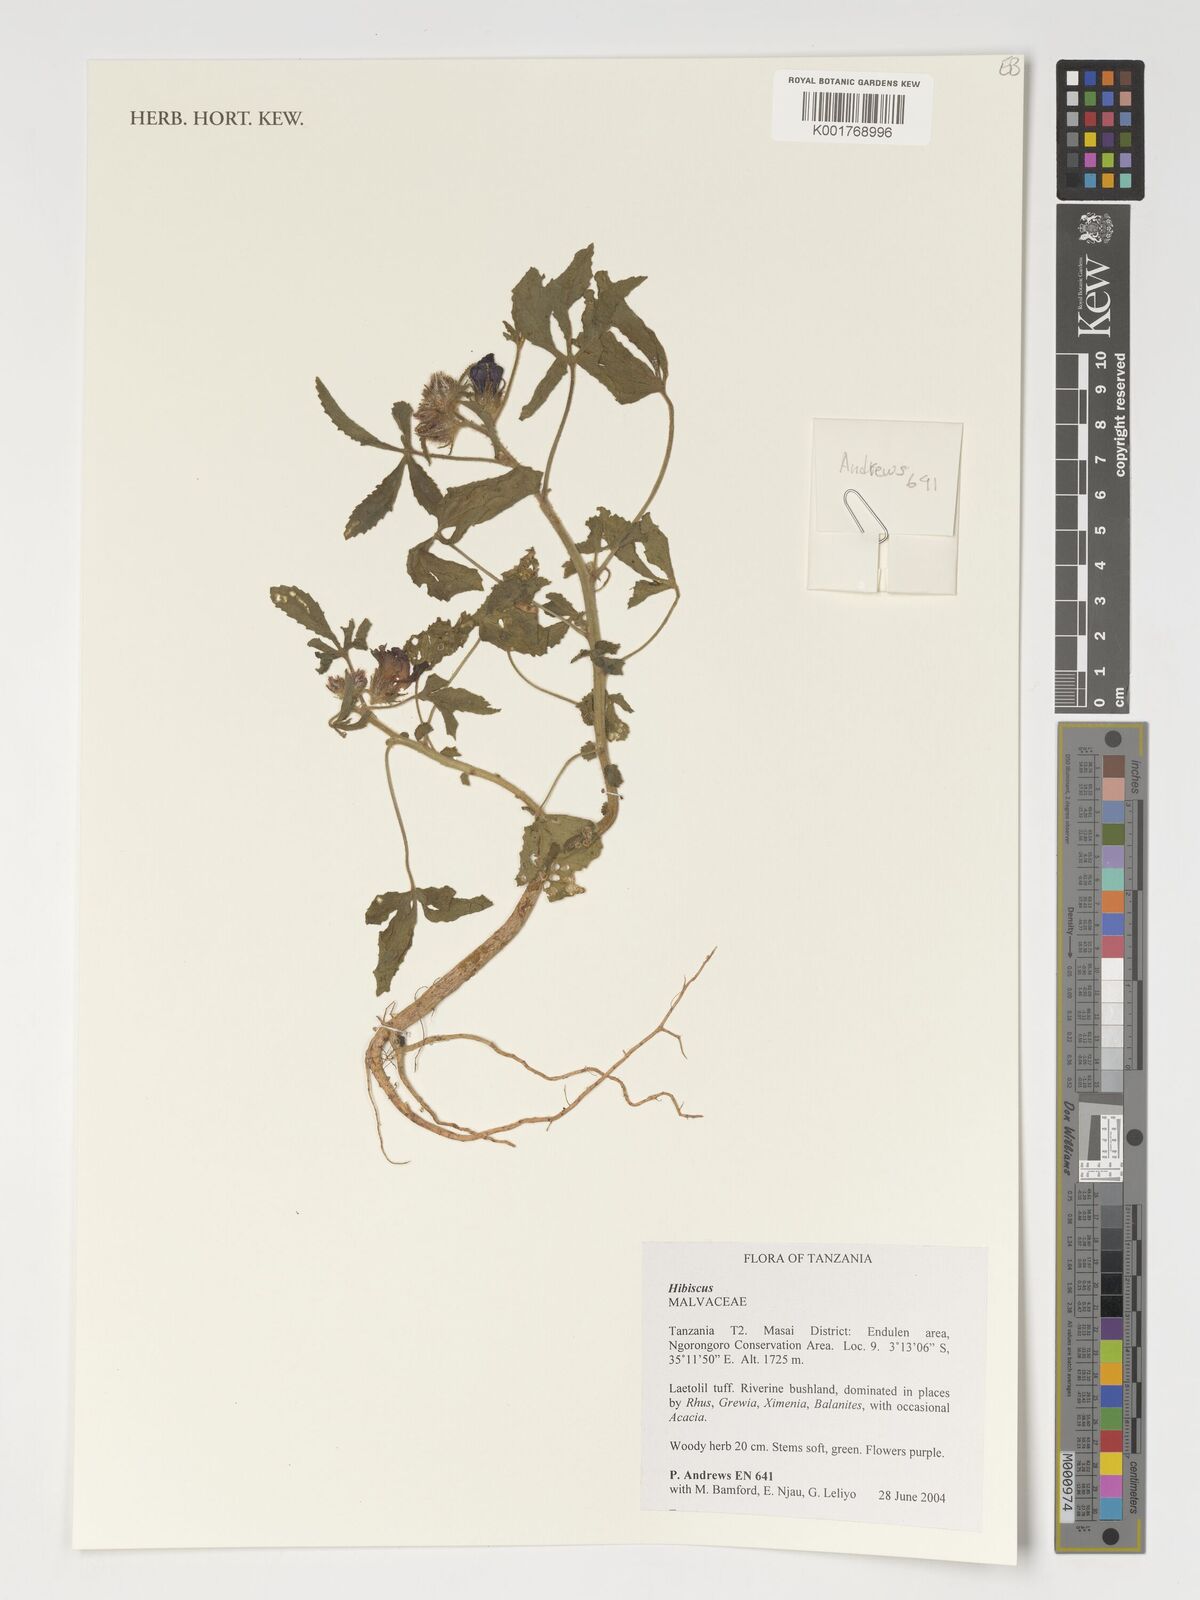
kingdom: Plantae
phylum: Tracheophyta
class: Magnoliopsida
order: Malvales
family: Malvaceae
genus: Hibiscus
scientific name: Hibiscus
